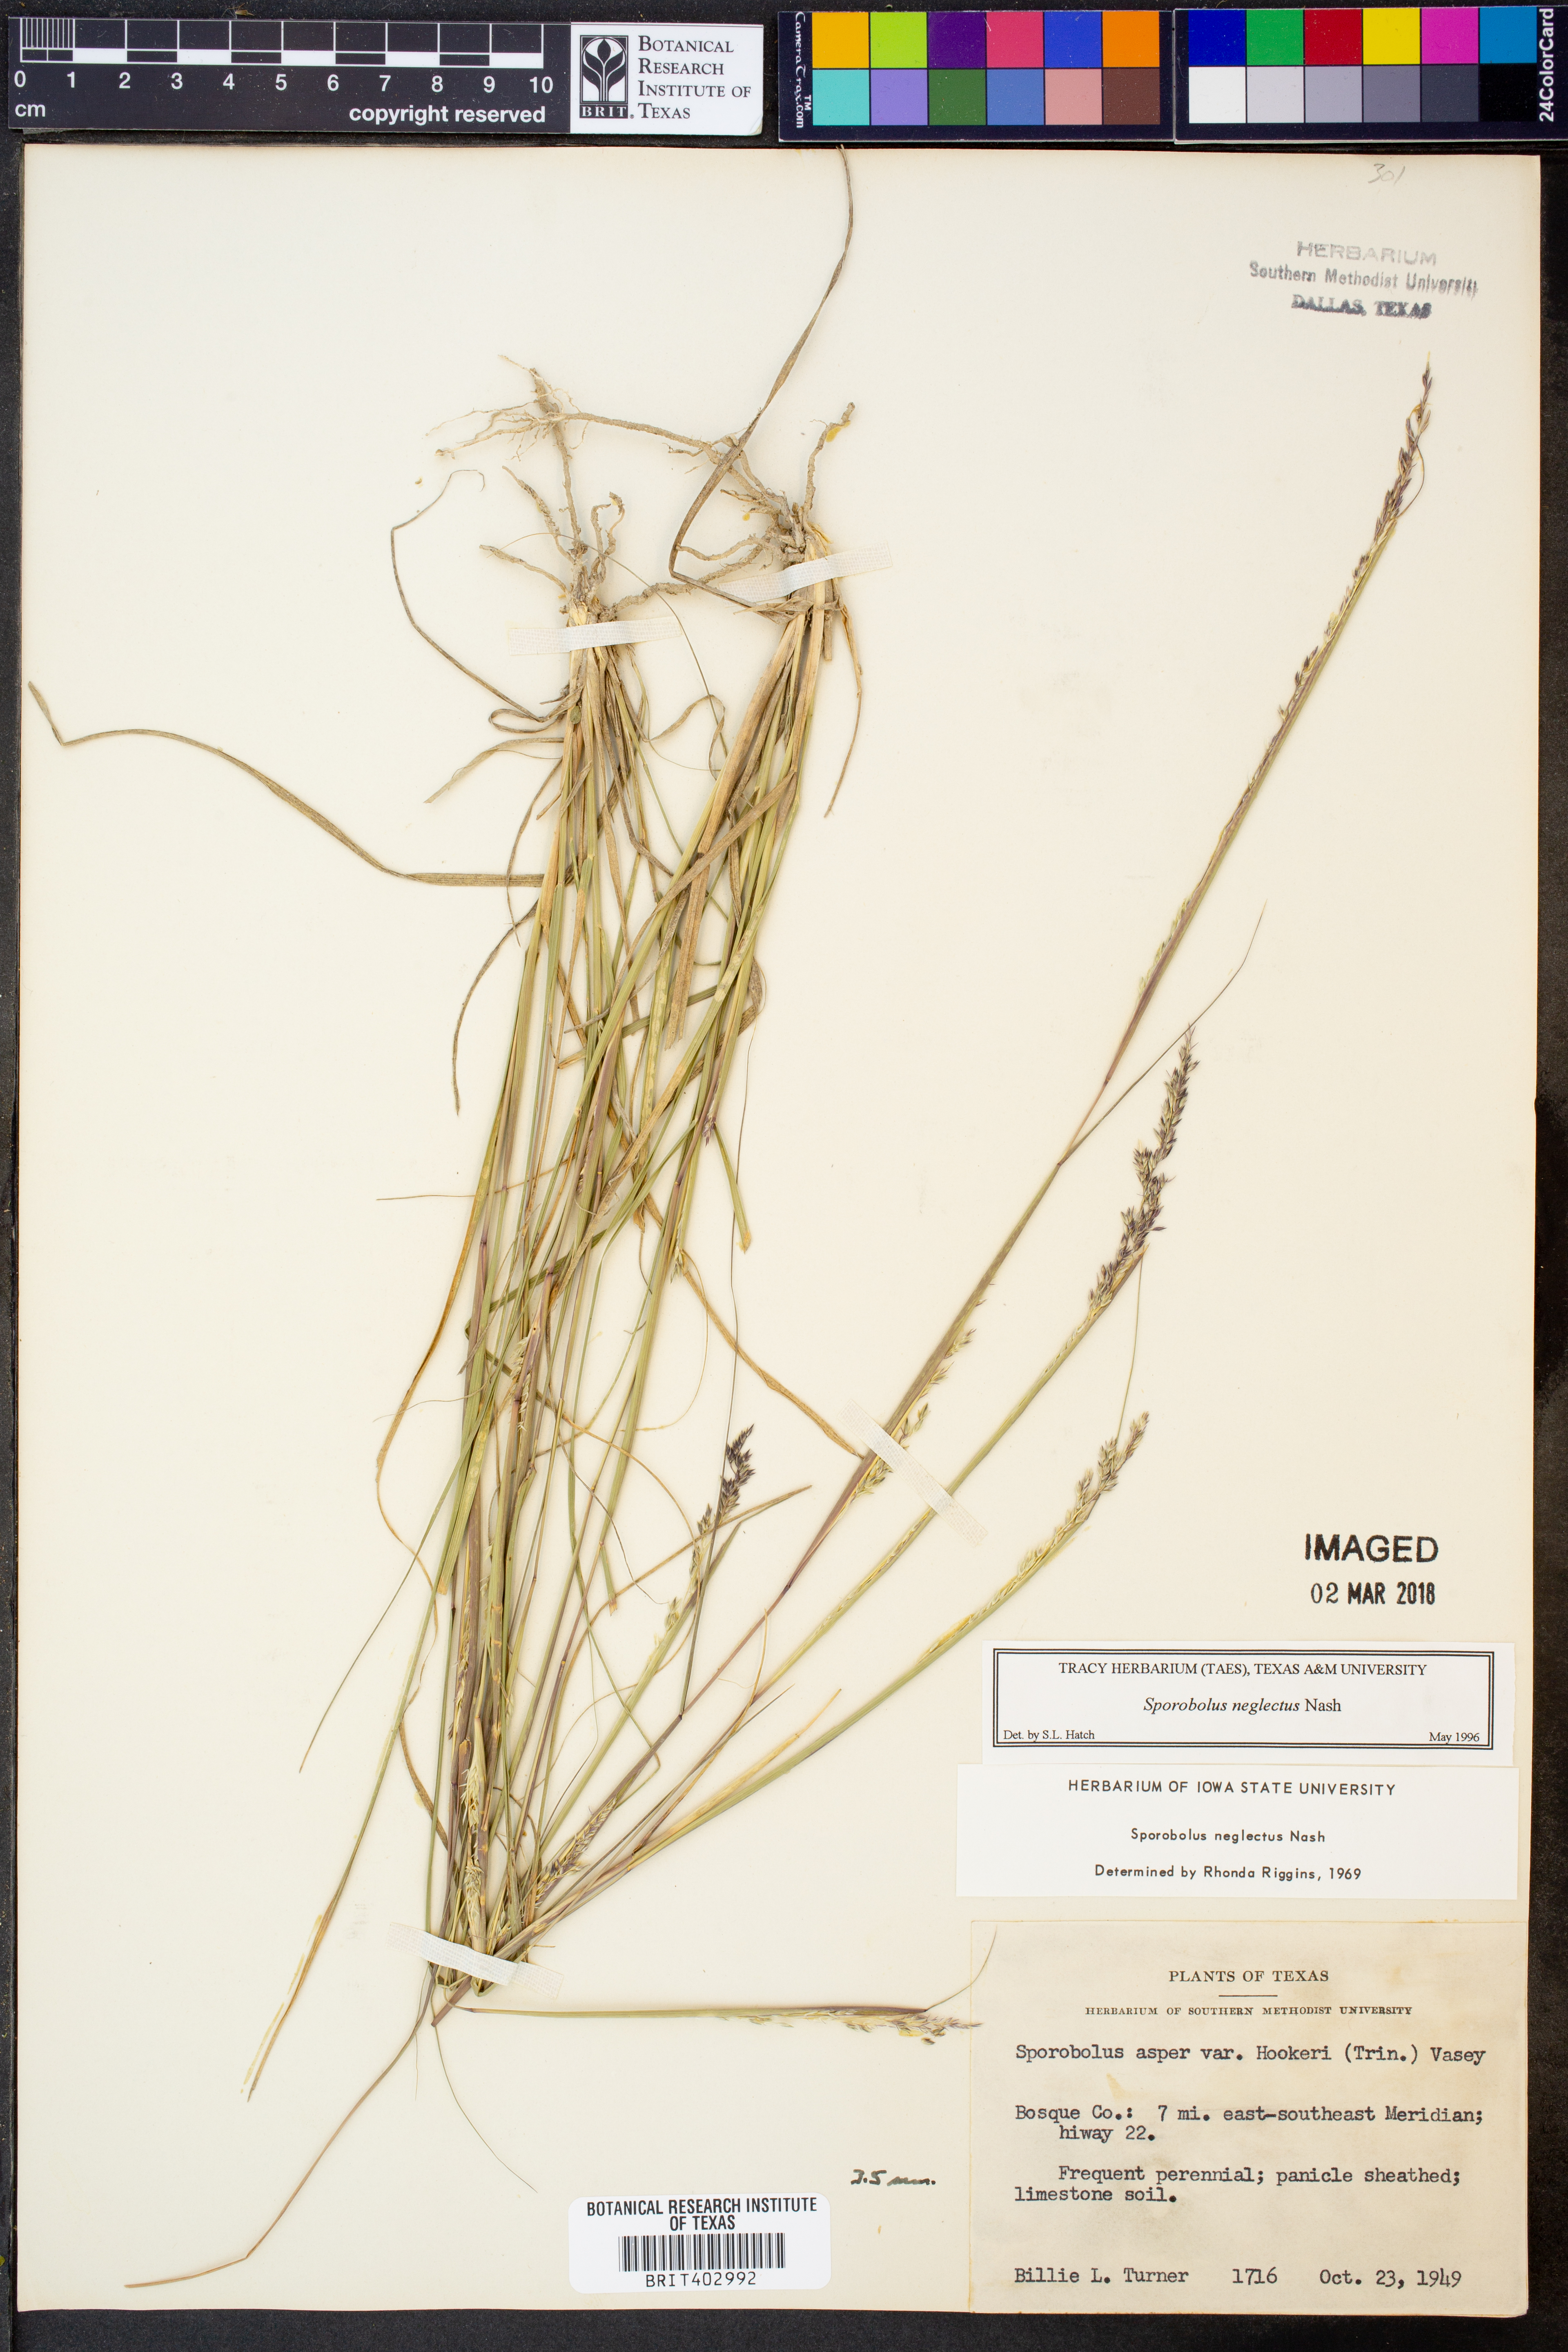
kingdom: Plantae
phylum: Tracheophyta
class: Liliopsida
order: Poales
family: Poaceae
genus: Sporobolus
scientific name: Sporobolus neglectus
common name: Annual dropseed
